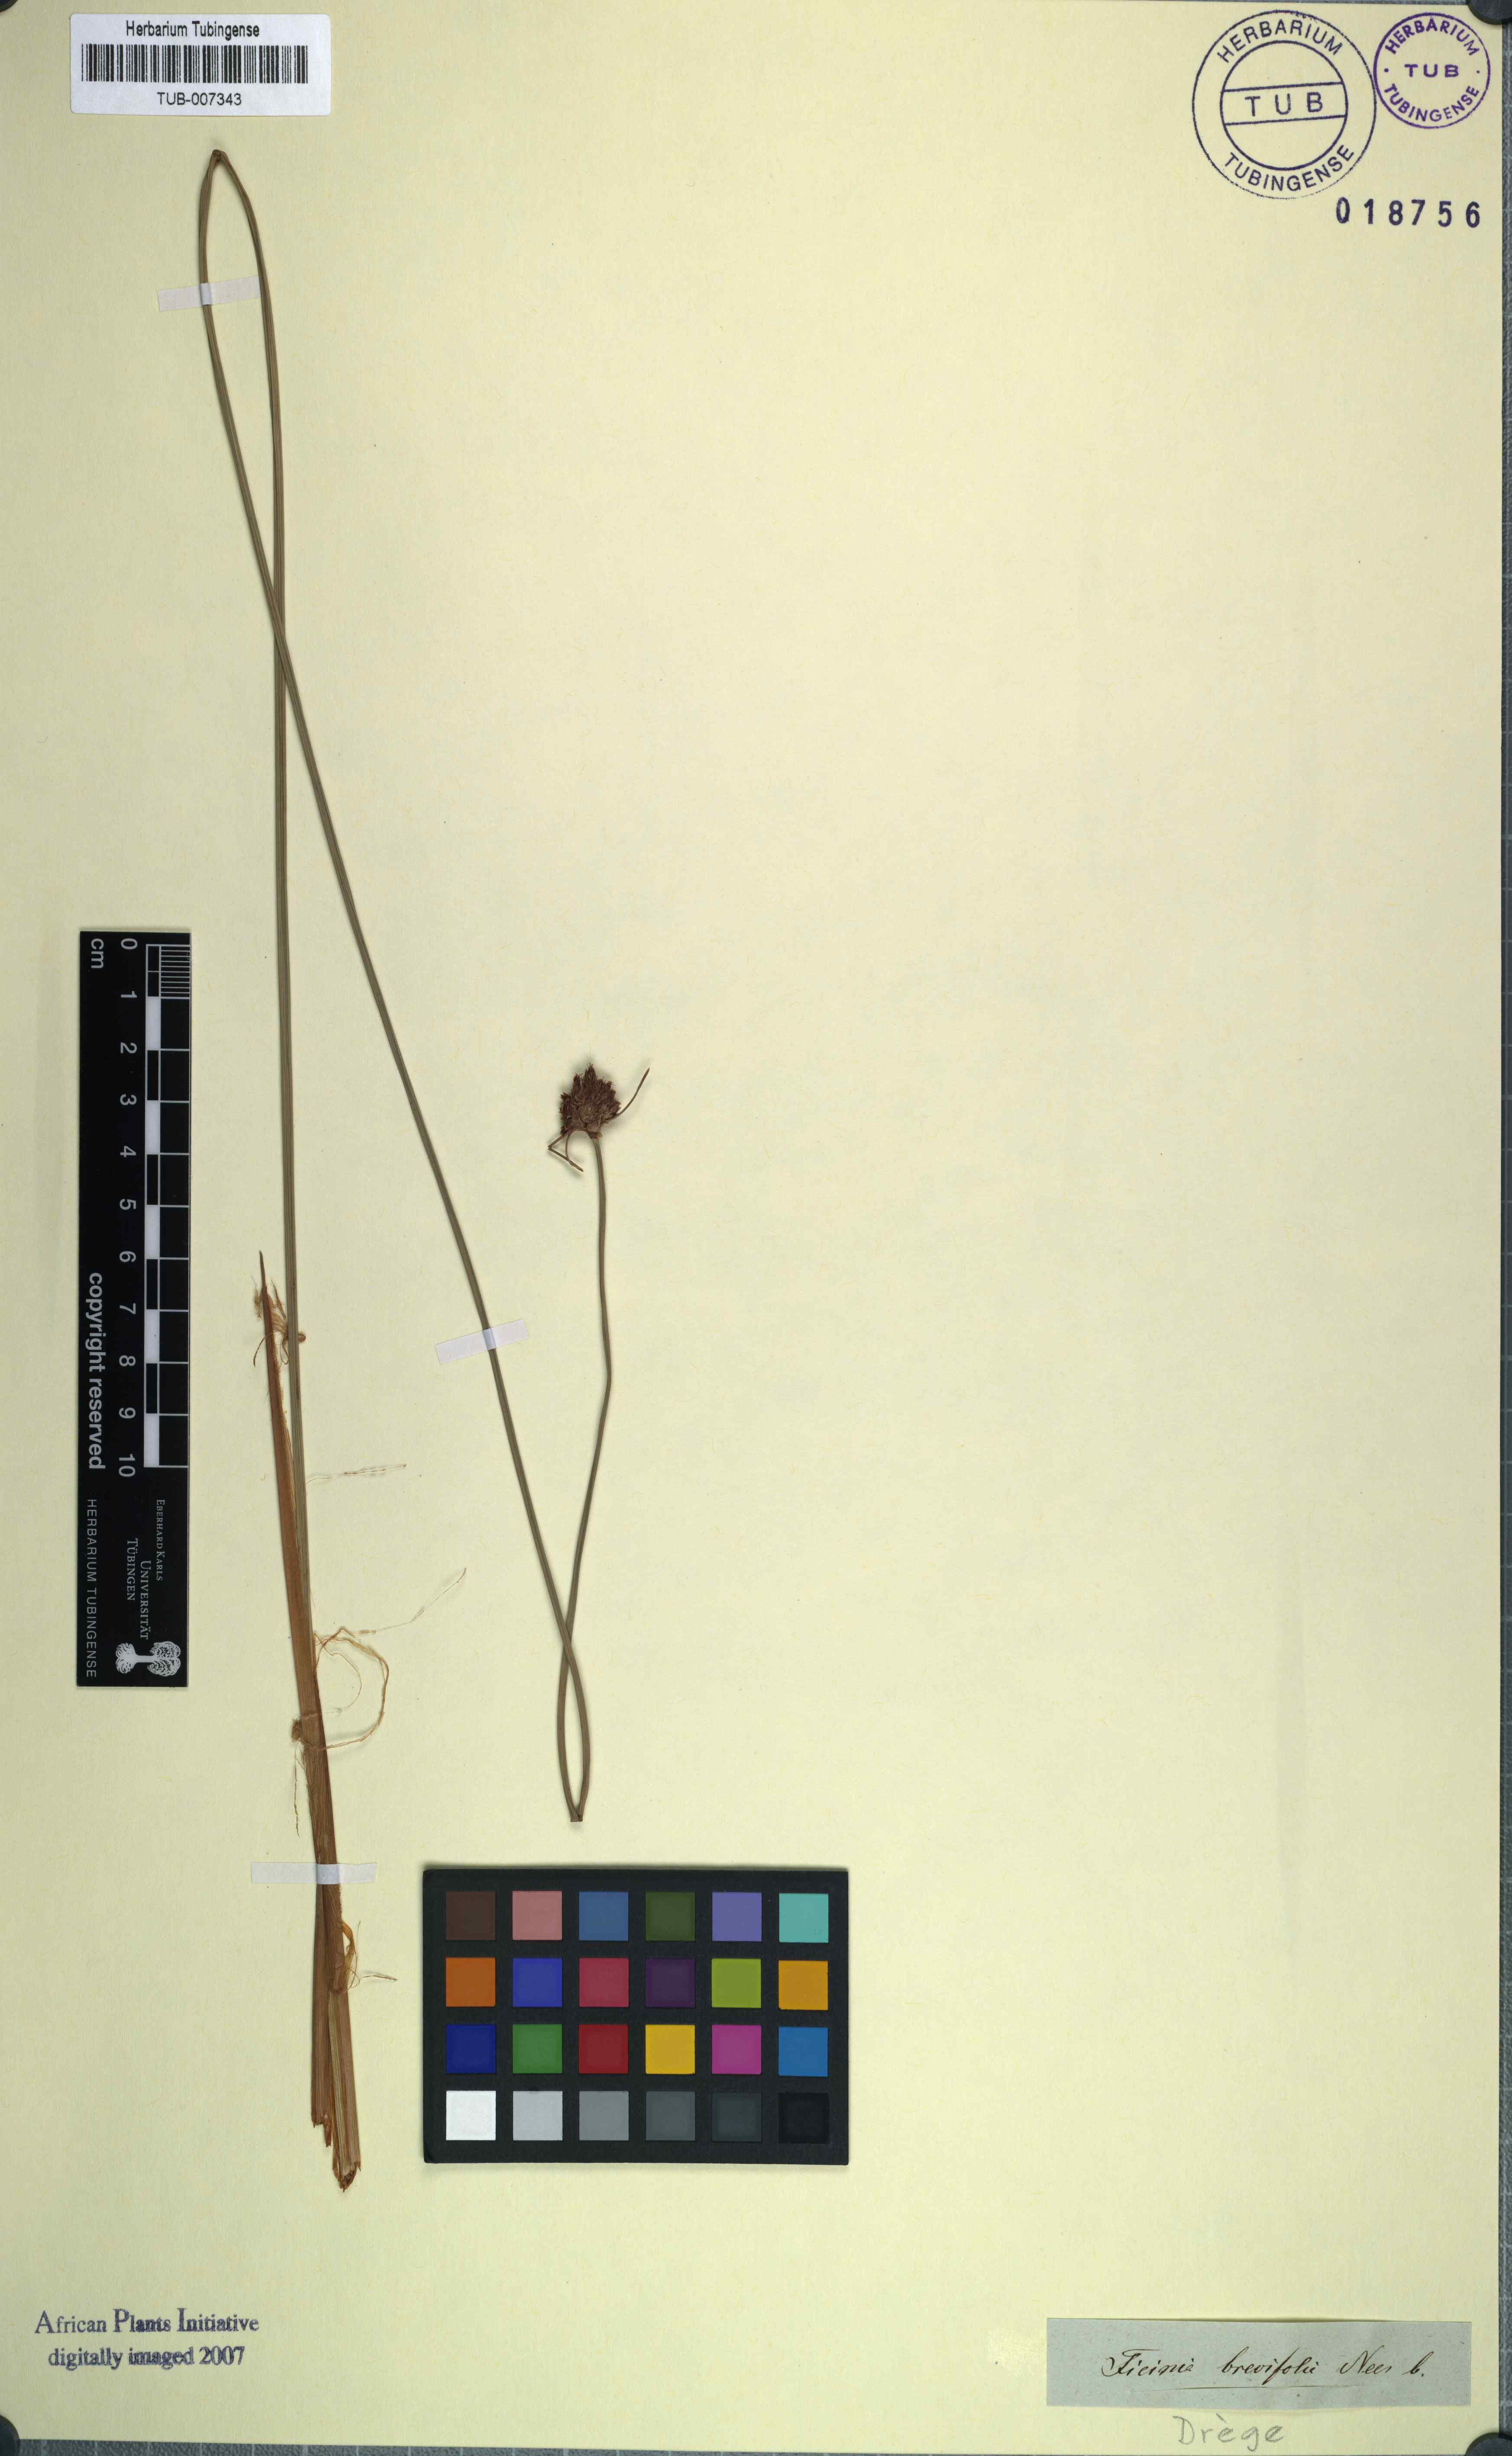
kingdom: Plantae
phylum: Tracheophyta
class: Liliopsida
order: Poales
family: Cyperaceae
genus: Ficinia
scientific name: Ficinia brevifolia
